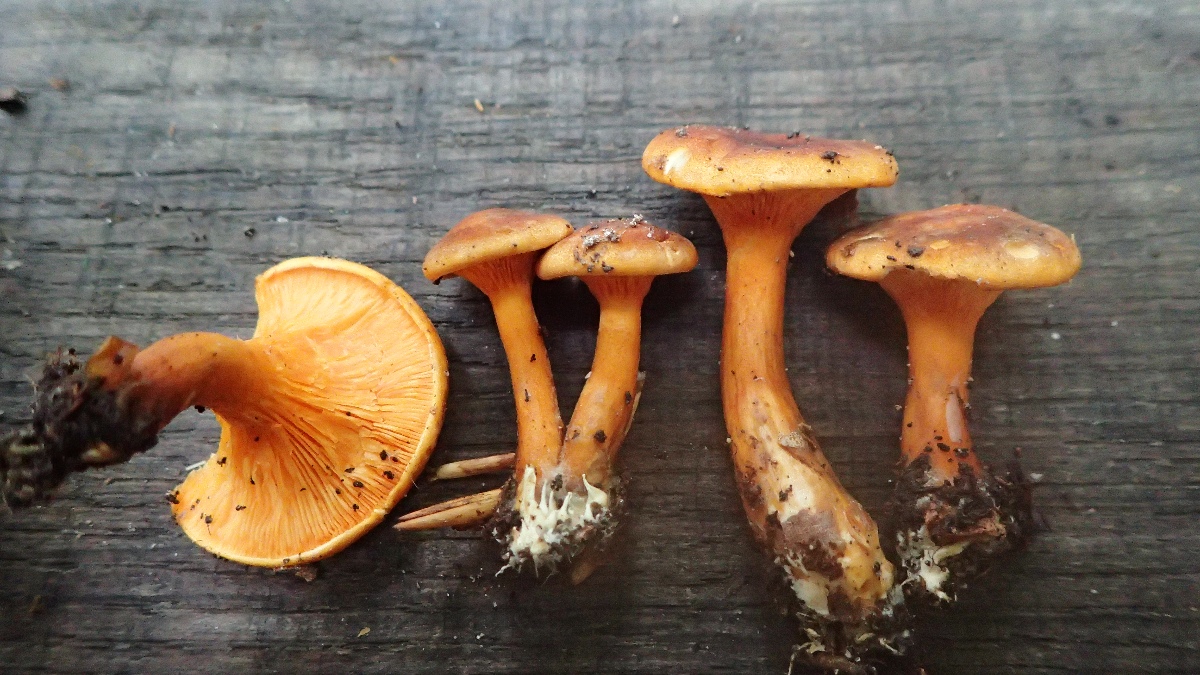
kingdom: Fungi
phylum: Basidiomycota
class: Agaricomycetes
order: Boletales
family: Hygrophoropsidaceae
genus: Hygrophoropsis
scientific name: Hygrophoropsis rufa
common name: brunfiltet orangekantarel
